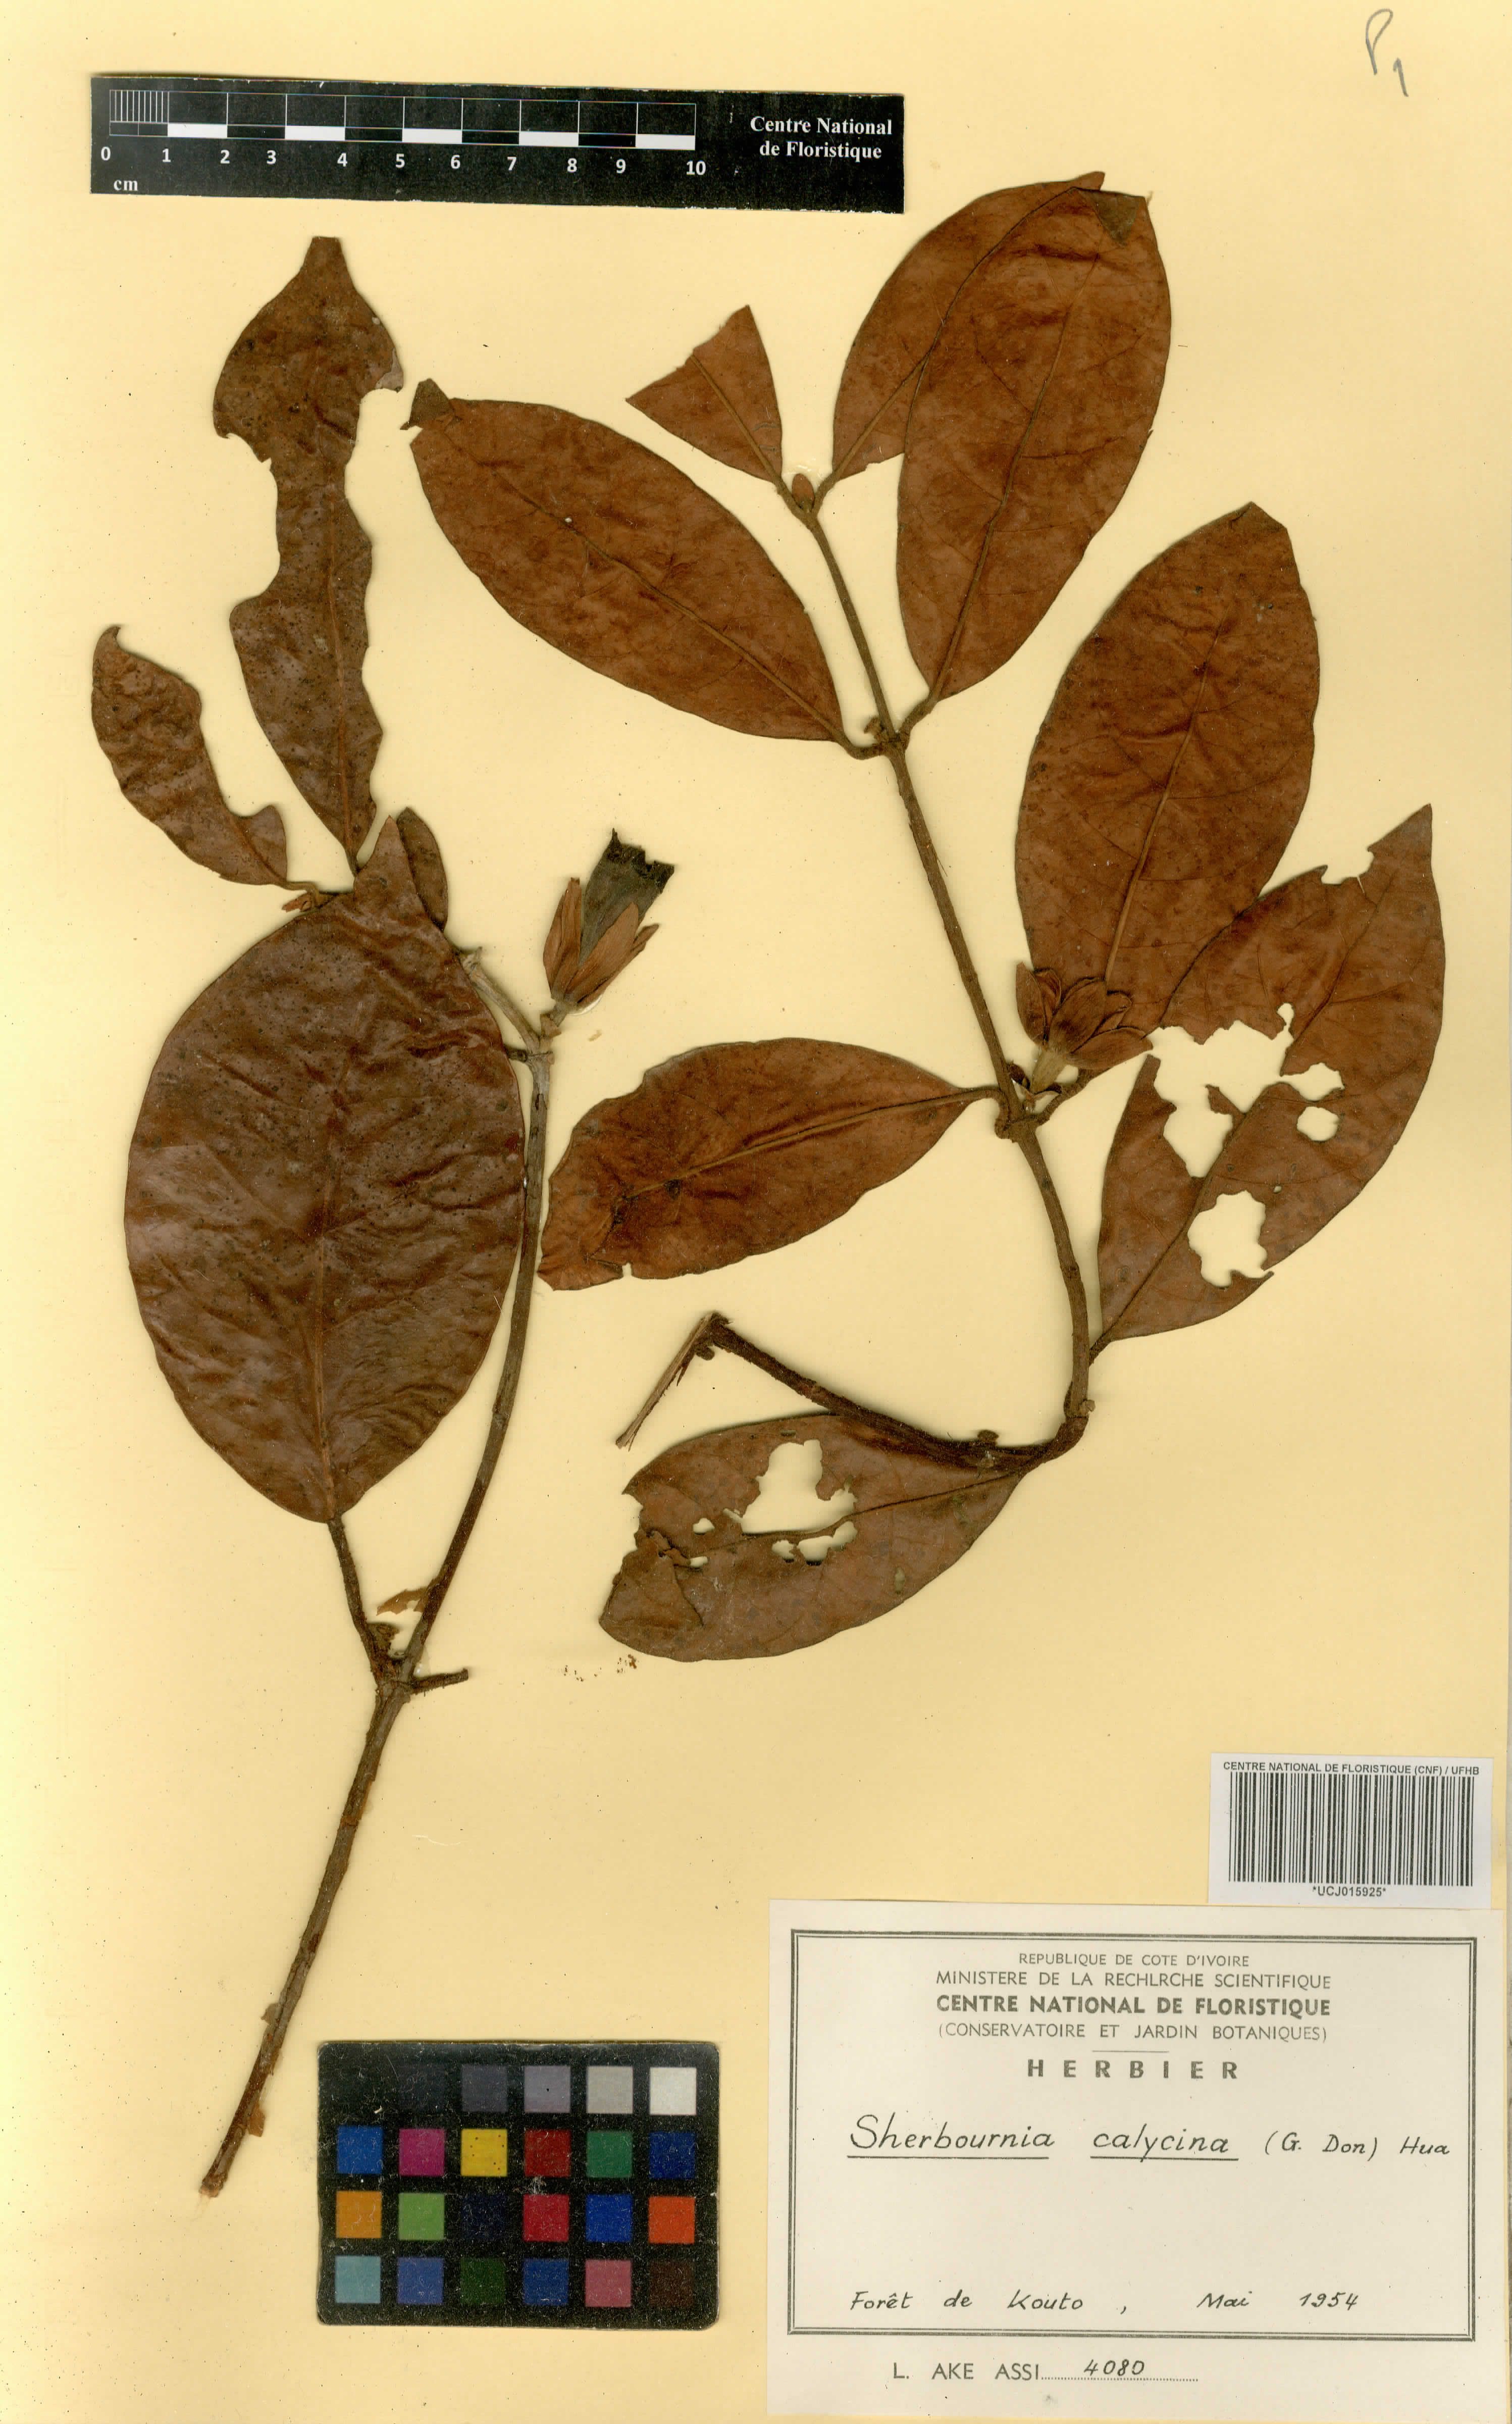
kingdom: Plantae
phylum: Tracheophyta
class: Magnoliopsida
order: Gentianales
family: Rubiaceae
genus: Sherbournia
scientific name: Sherbournia calycina
